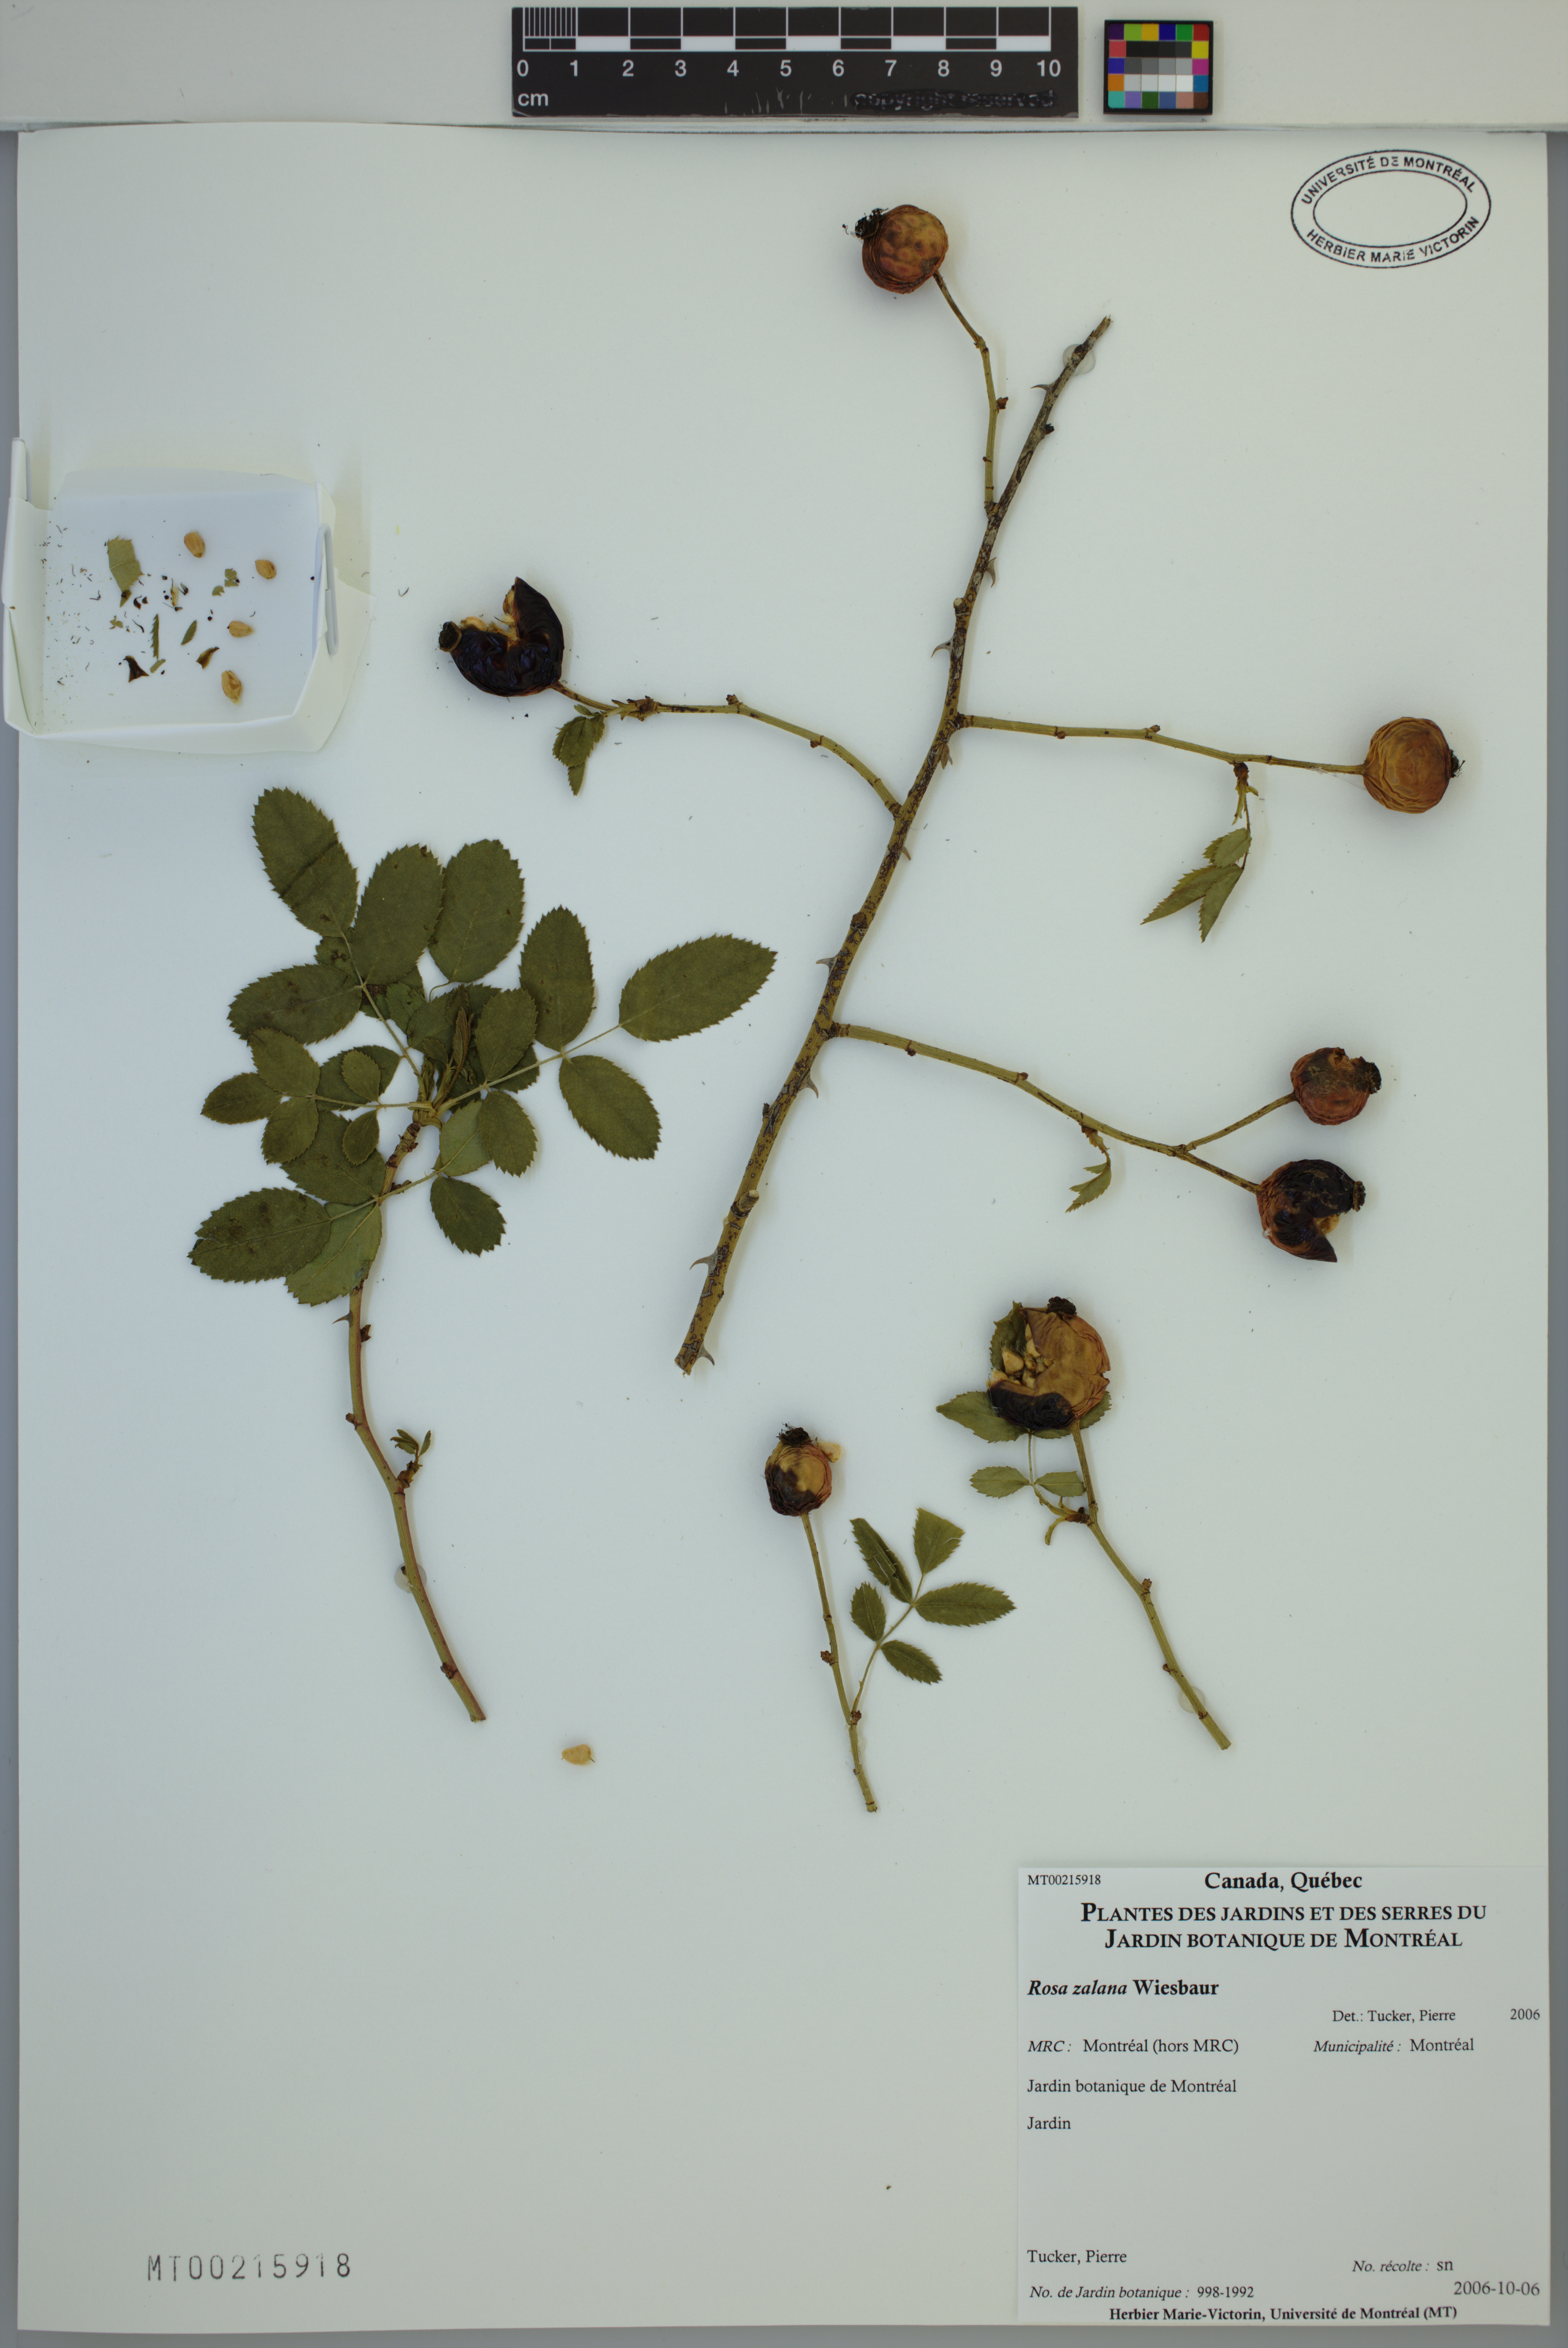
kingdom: Plantae
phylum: Tracheophyta
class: Magnoliopsida
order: Rosales
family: Rosaceae
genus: Rosa
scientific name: Rosa zalana
